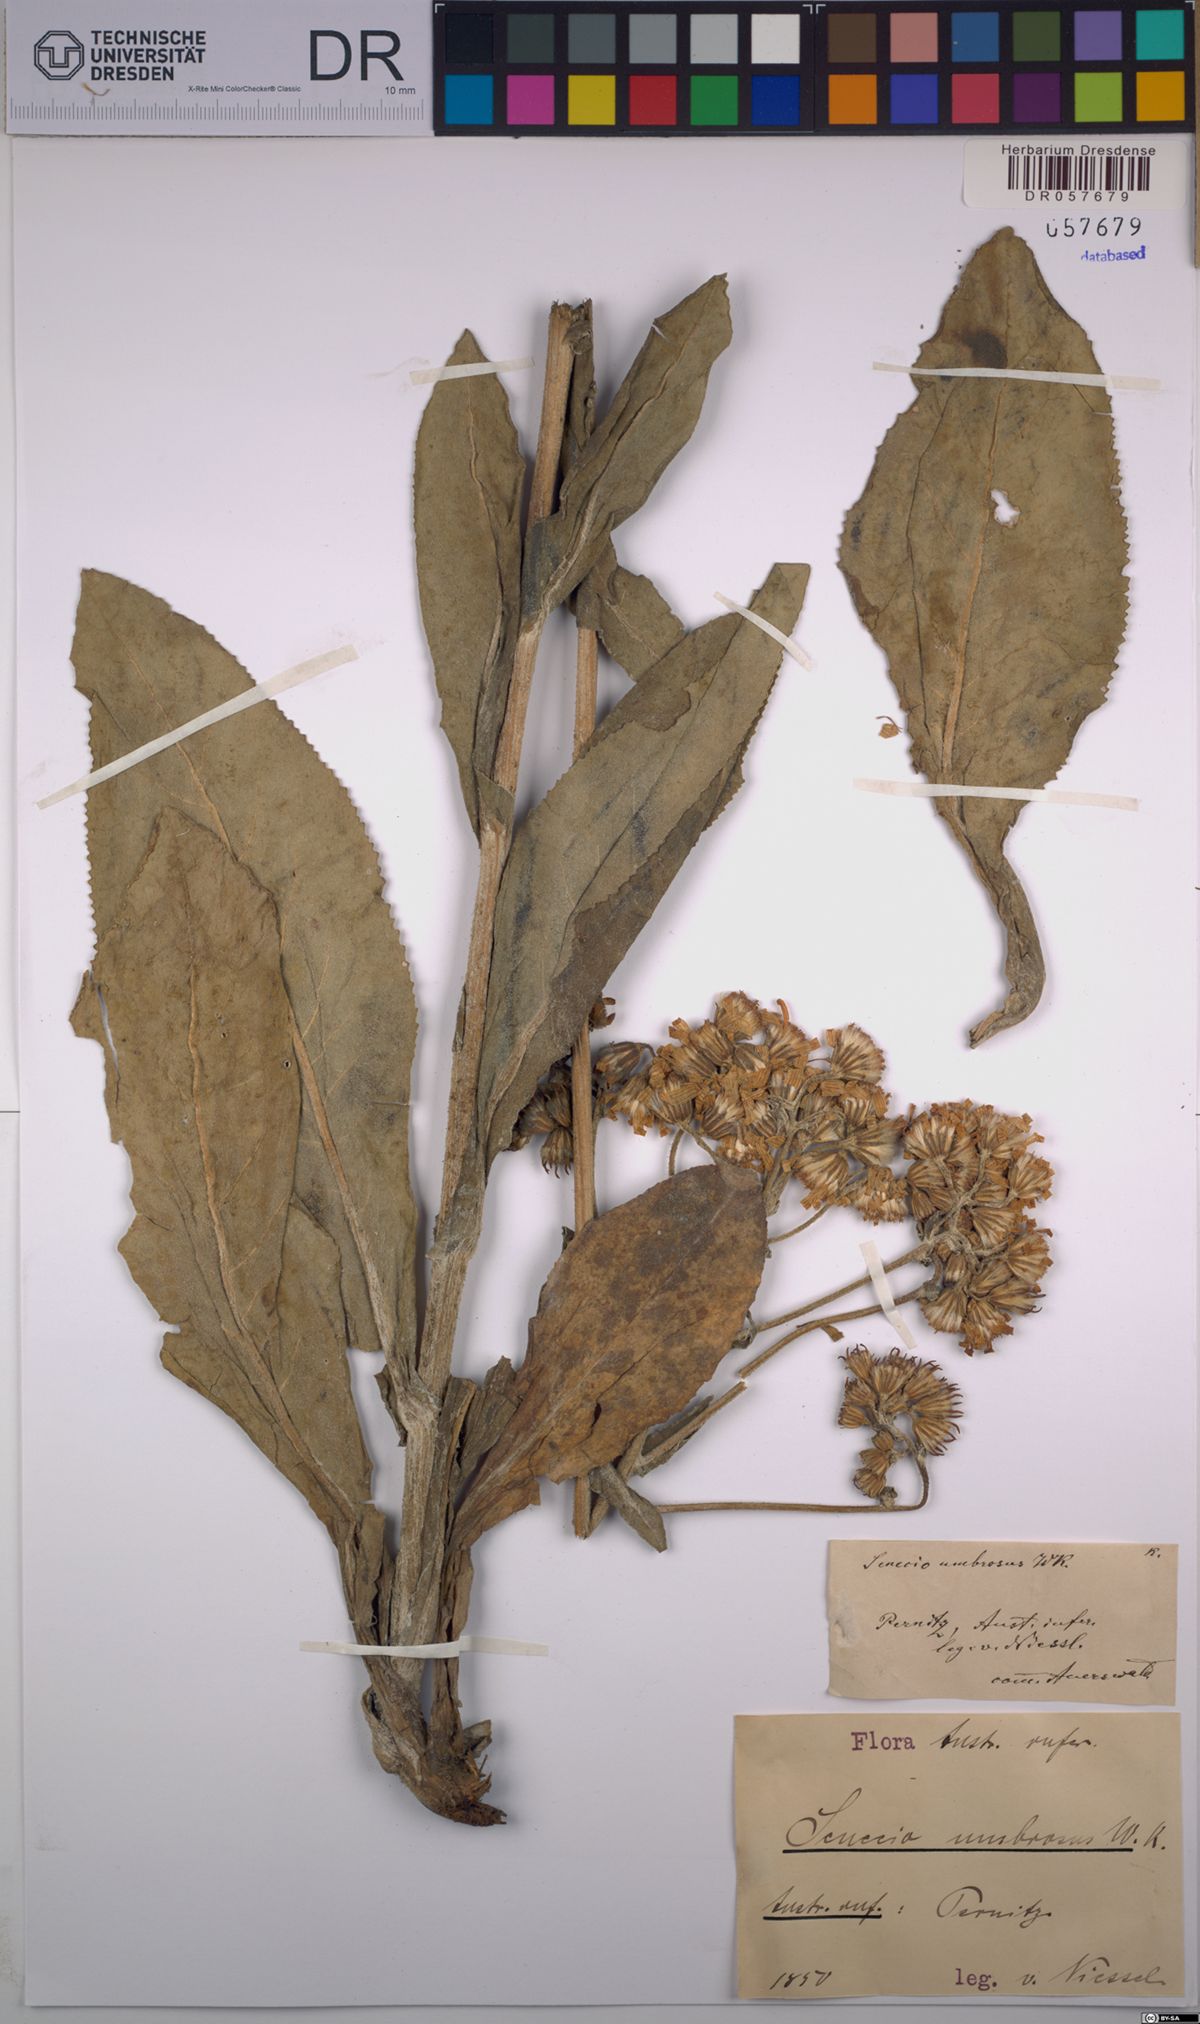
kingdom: Plantae
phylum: Tracheophyta
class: Magnoliopsida
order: Asterales
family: Asteraceae
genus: Senecio
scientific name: Senecio umbrosus
